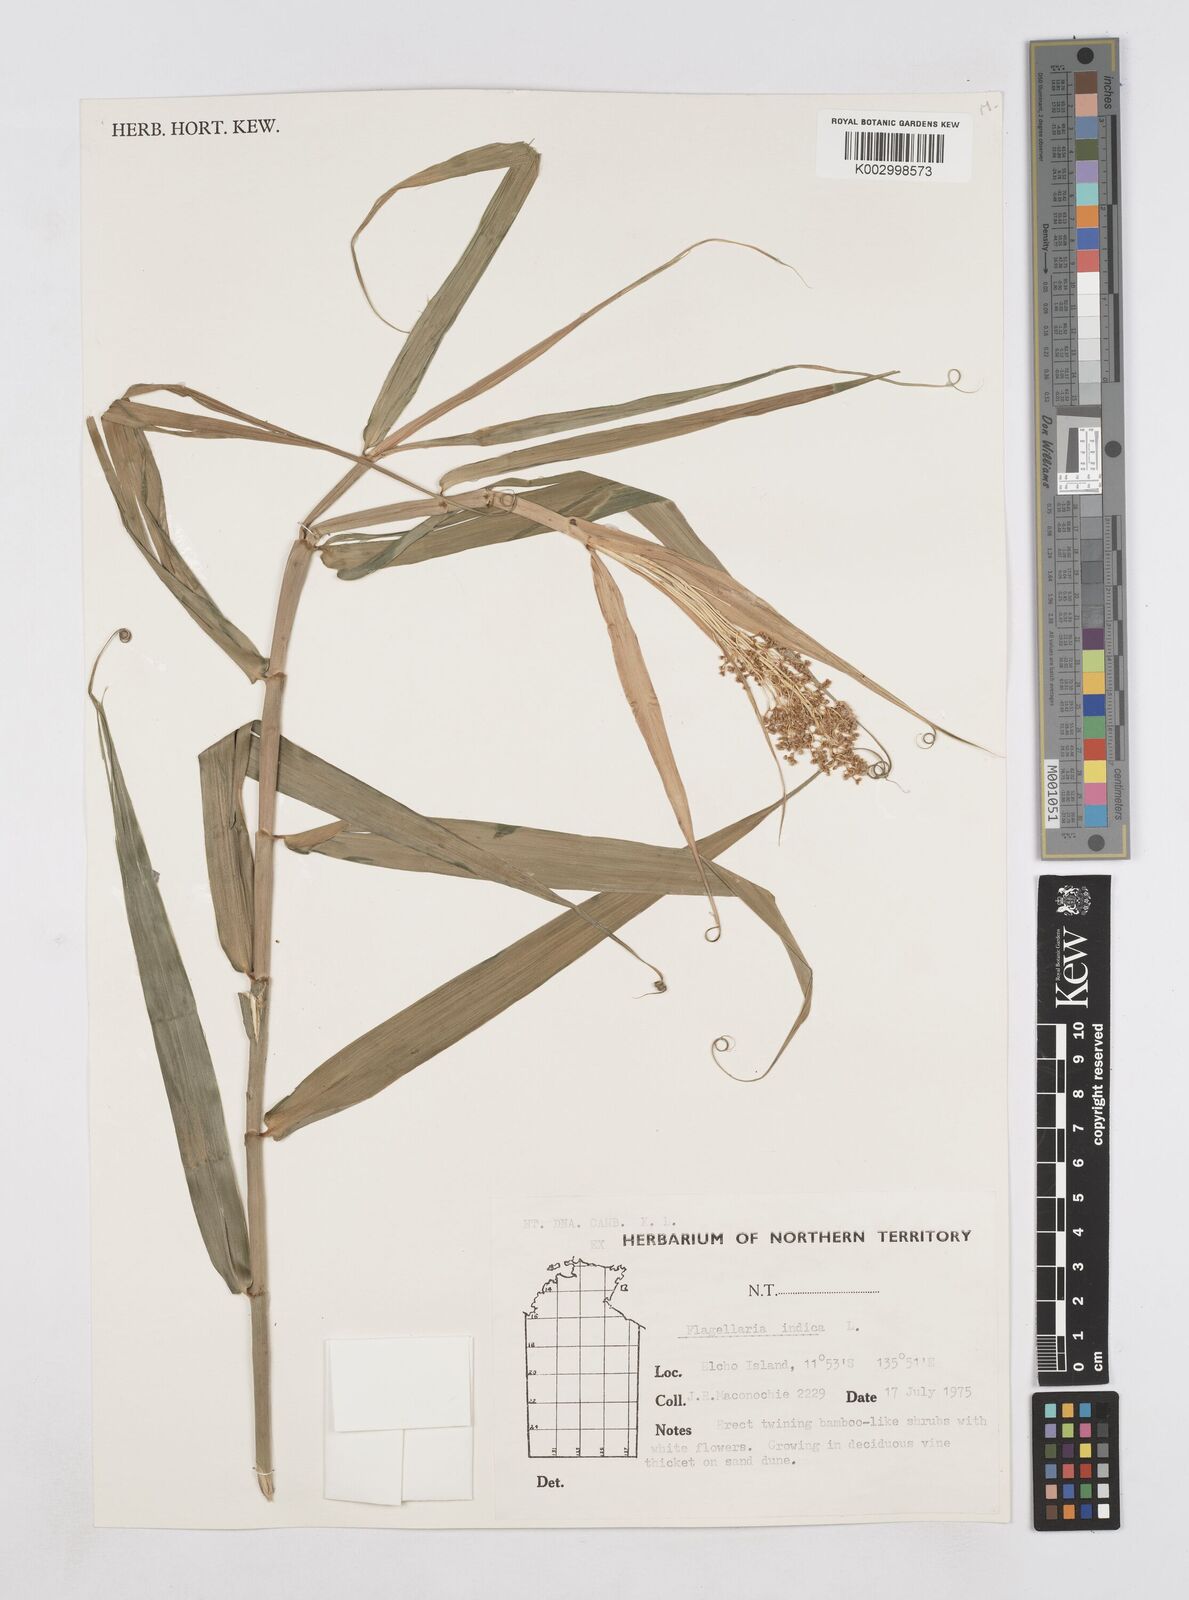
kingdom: Plantae
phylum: Tracheophyta
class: Liliopsida
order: Poales
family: Flagellariaceae
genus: Flagellaria
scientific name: Flagellaria indica
